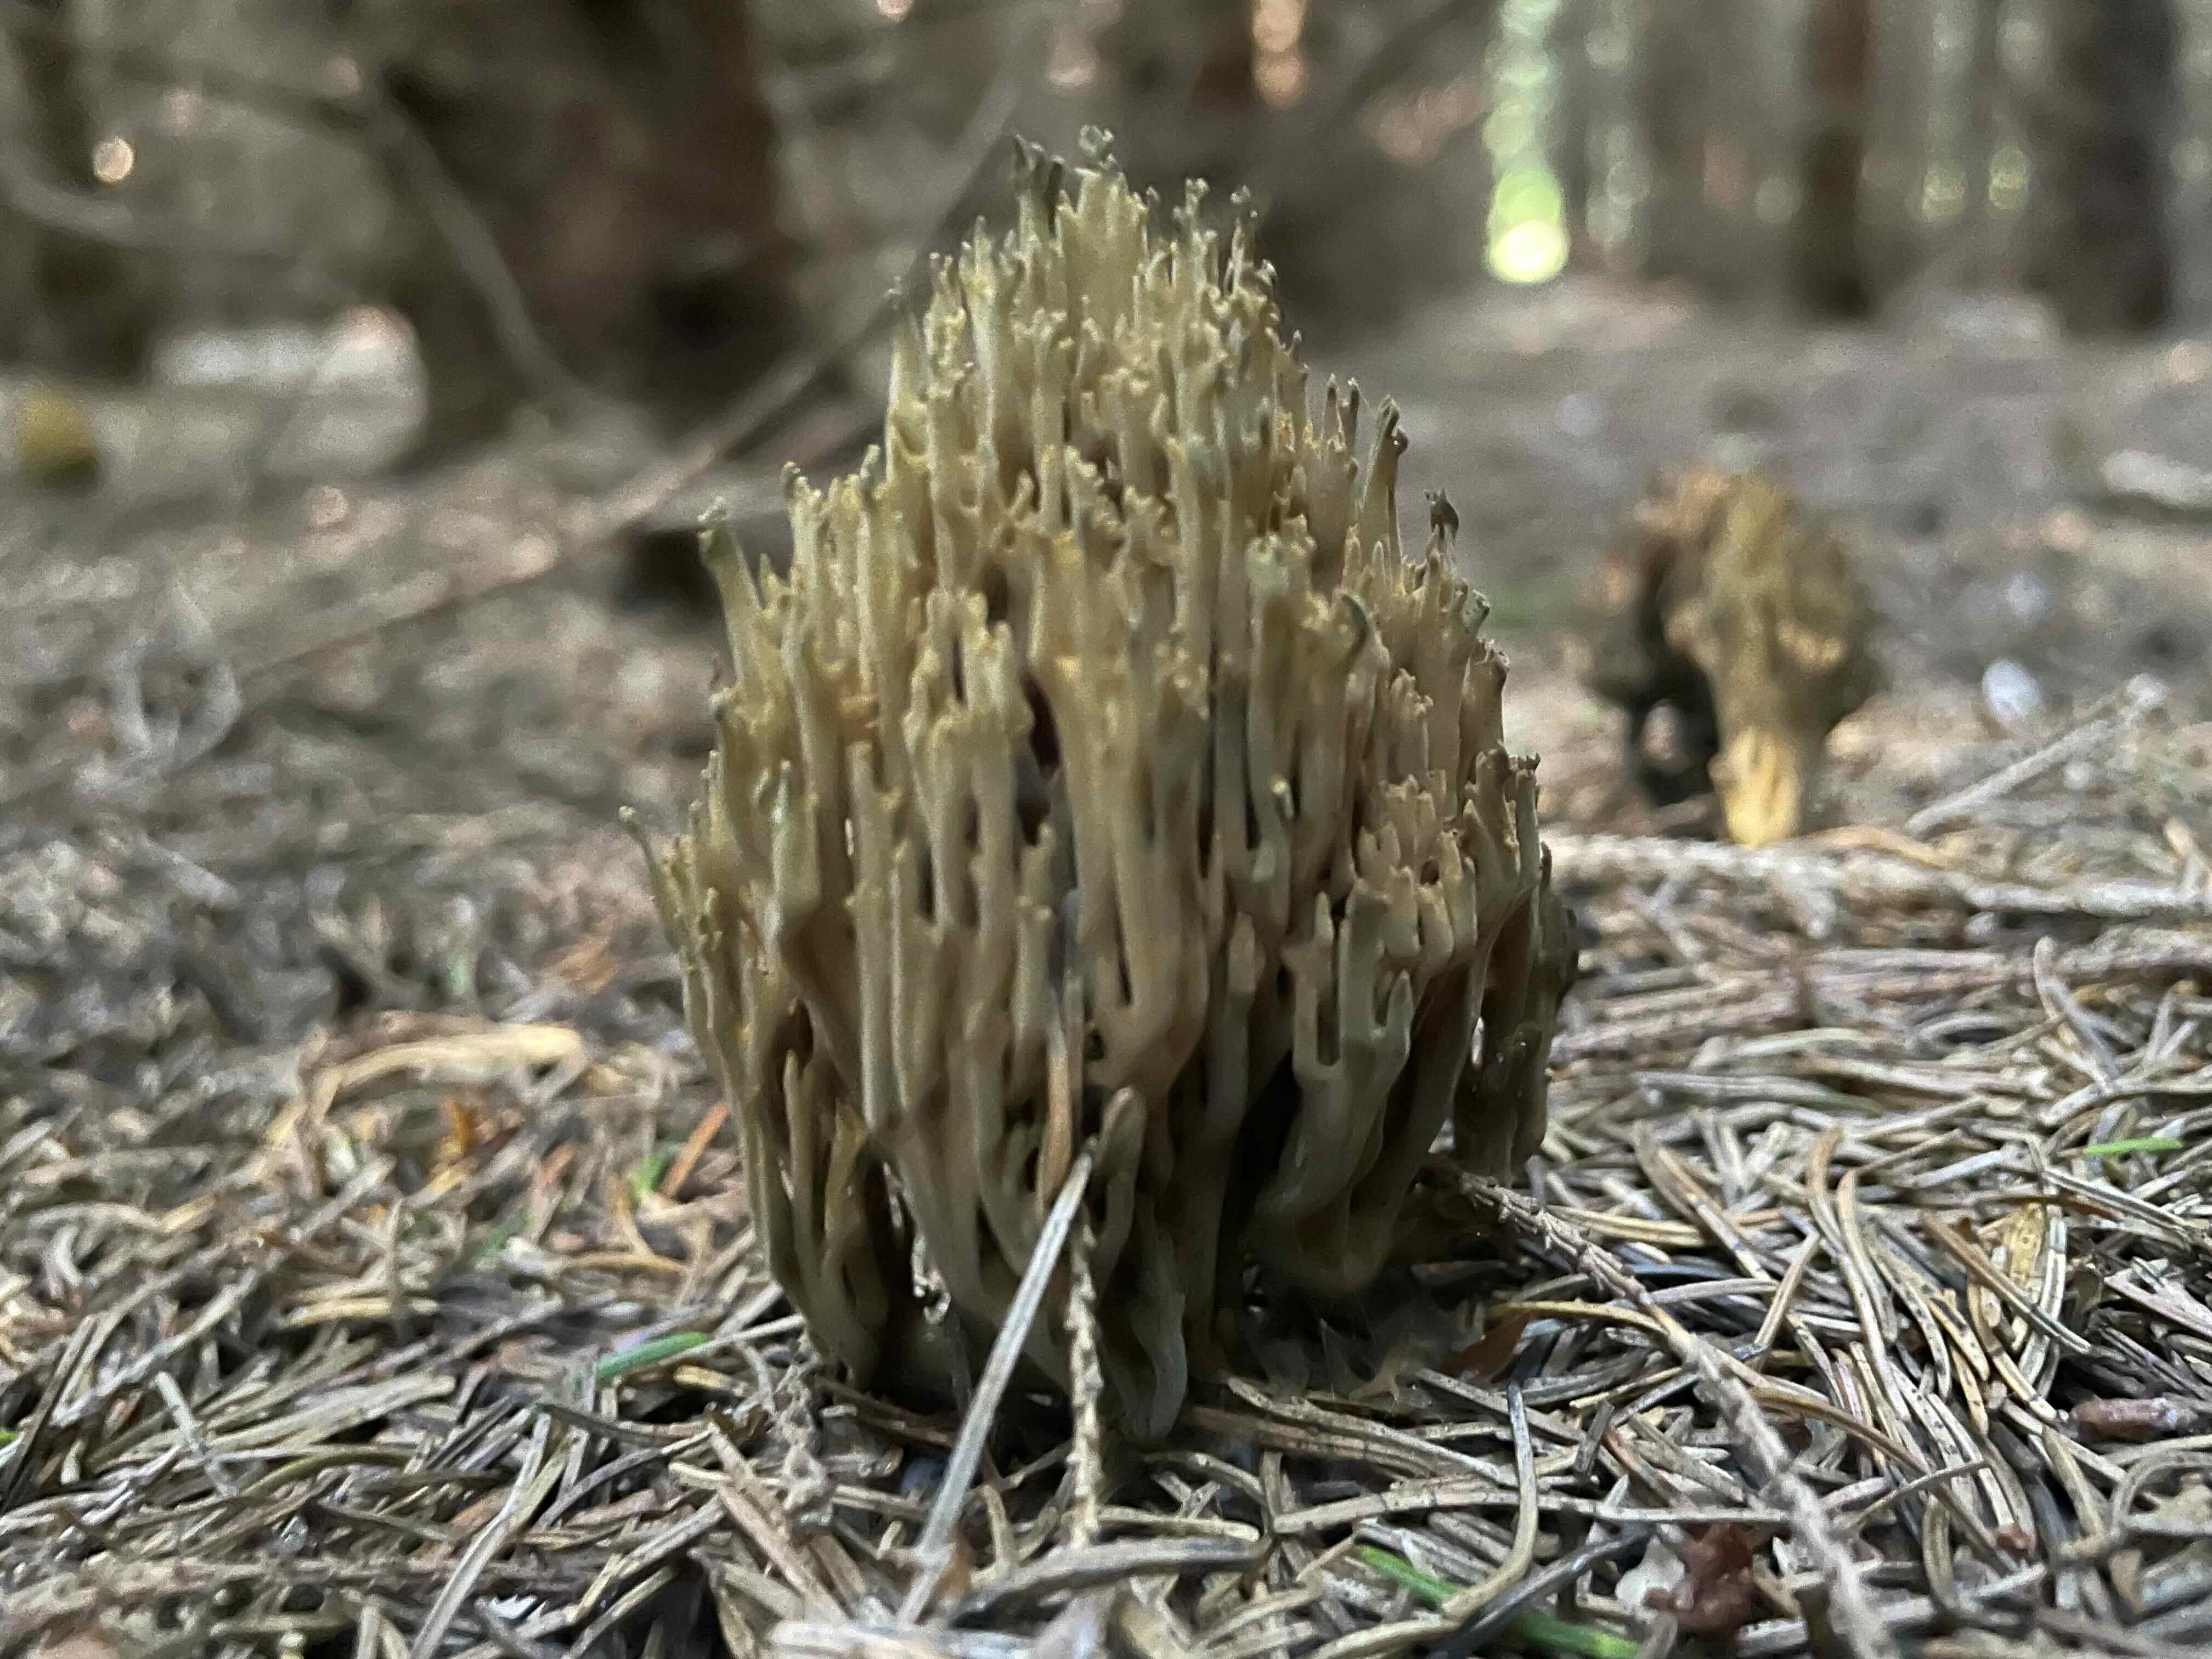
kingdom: Fungi
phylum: Basidiomycota
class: Agaricomycetes
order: Gomphales
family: Gomphaceae
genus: Phaeoclavulina
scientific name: Phaeoclavulina abietina
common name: gulgrøn koralsvamp
